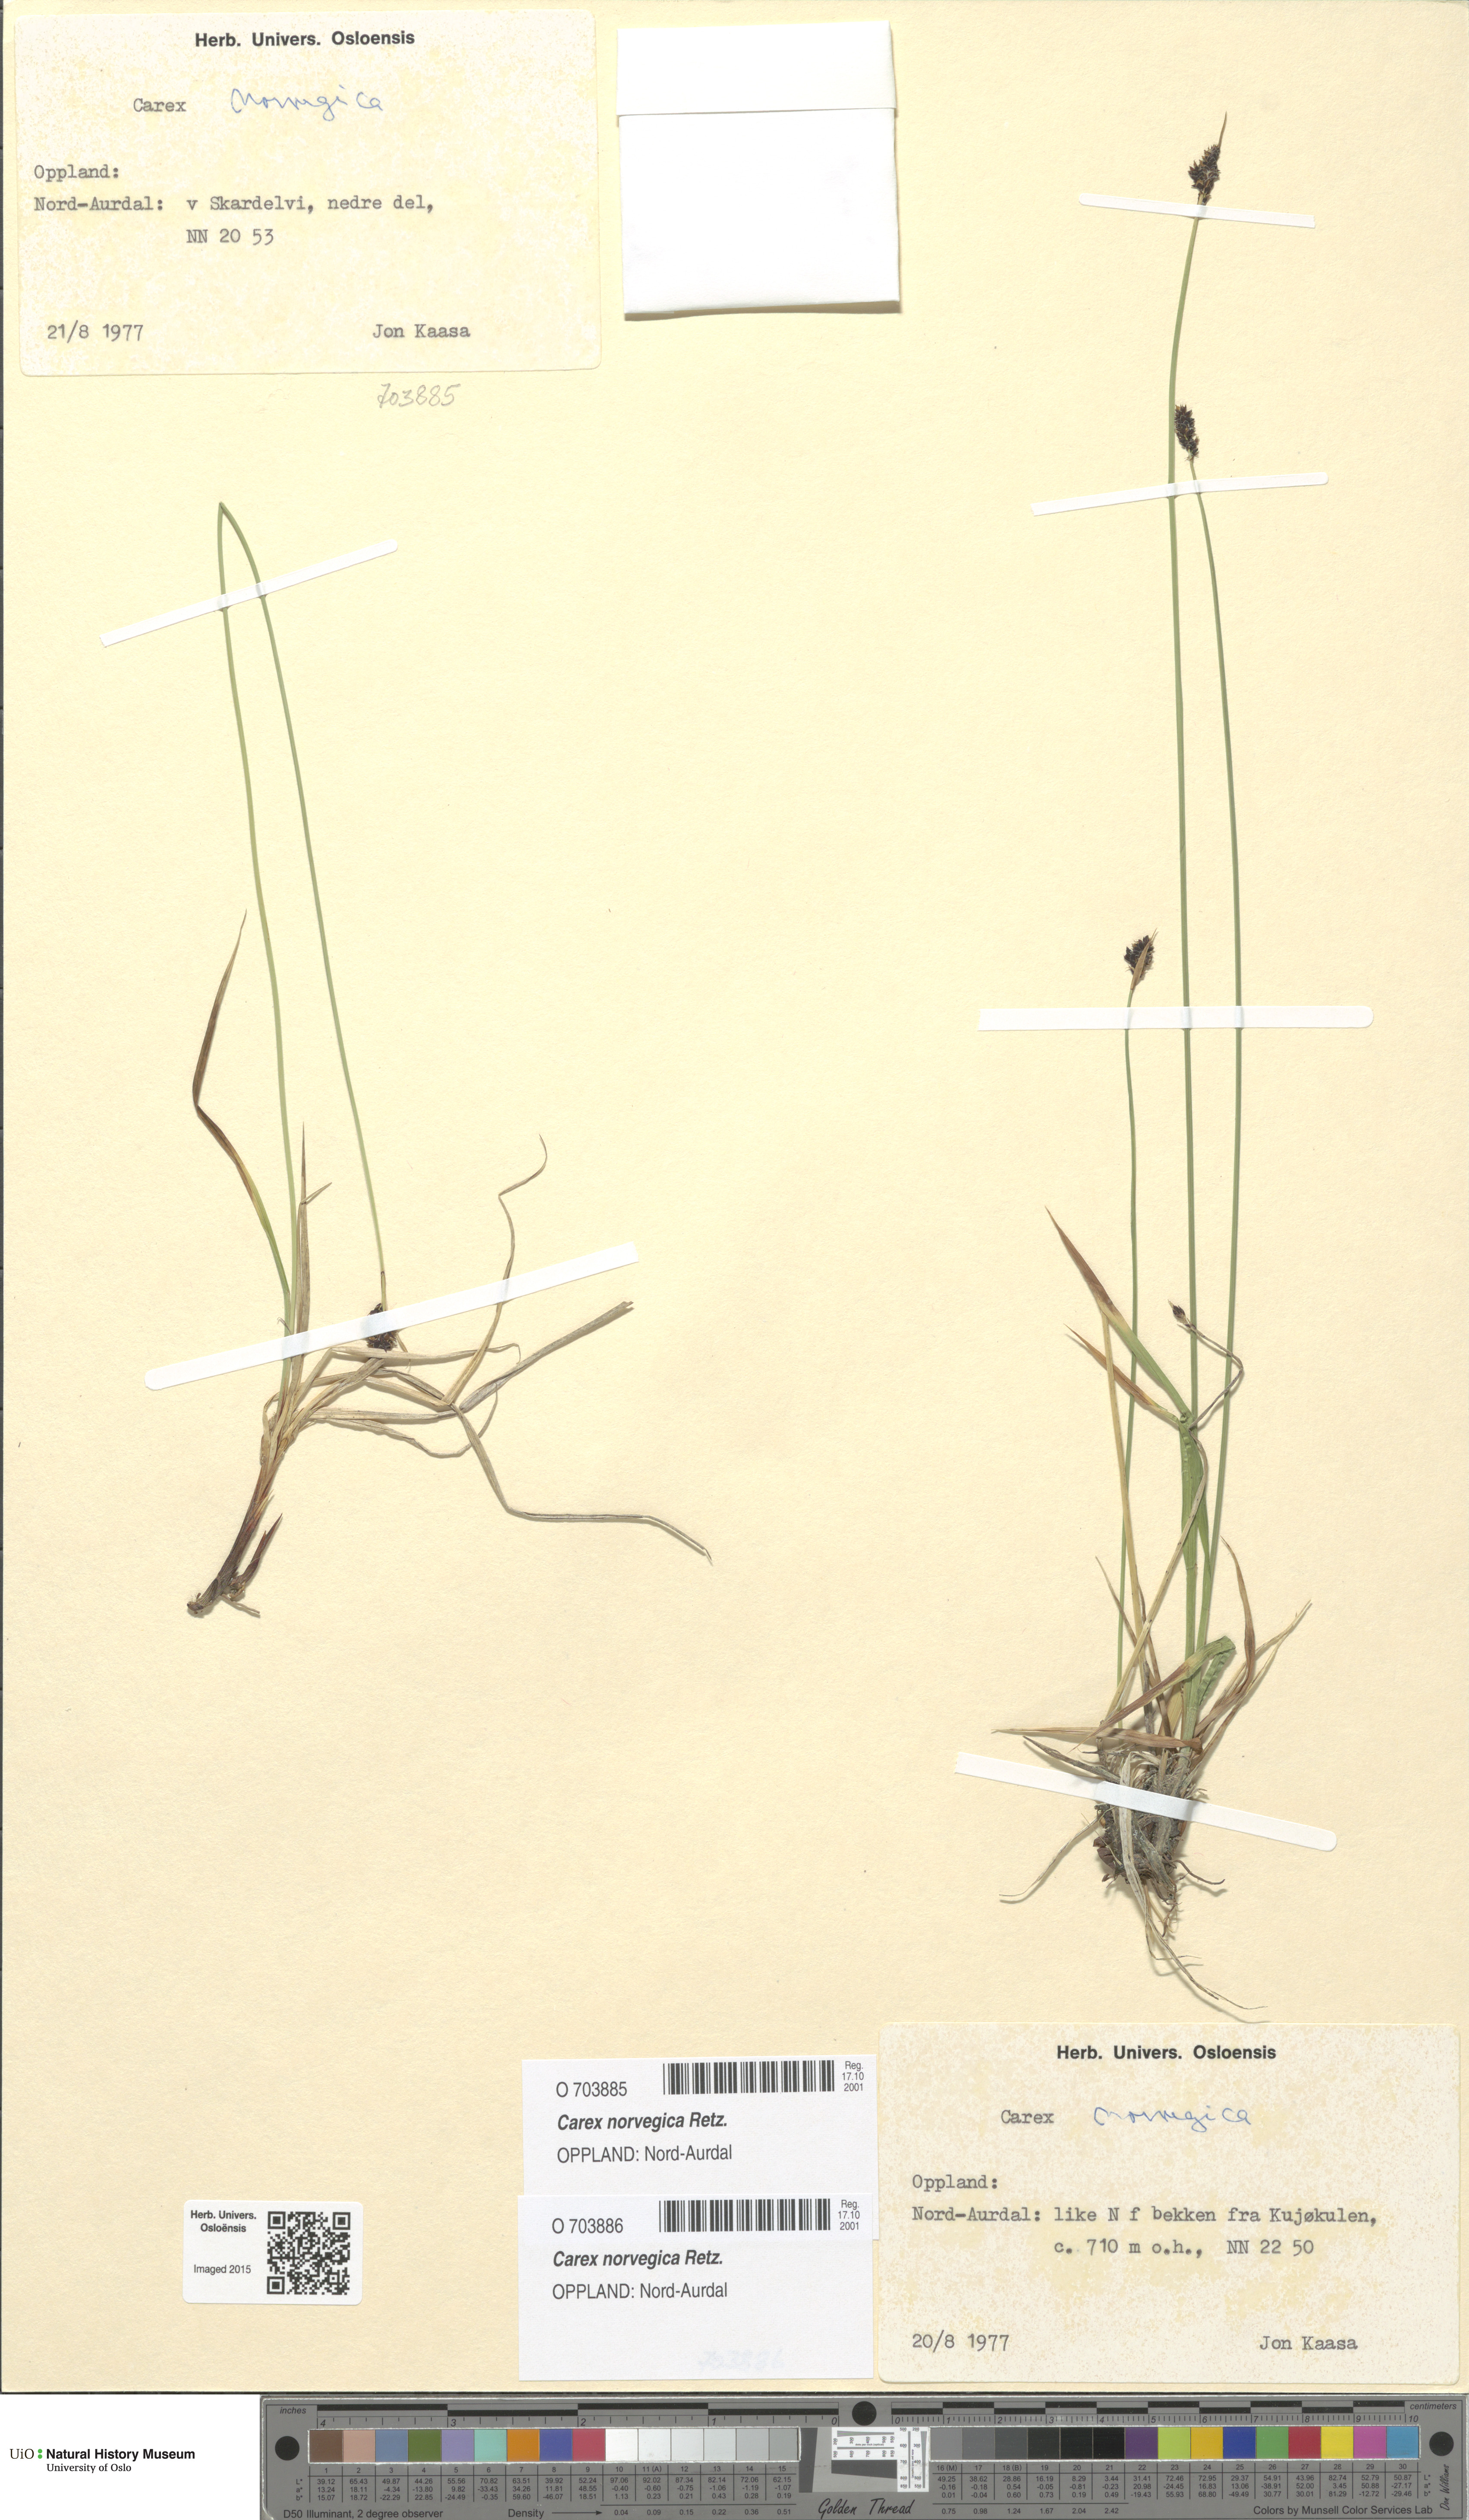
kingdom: Plantae
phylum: Tracheophyta
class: Liliopsida
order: Poales
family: Cyperaceae
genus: Carex
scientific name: Carex norvegica
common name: Close-headed alpine-sedge
